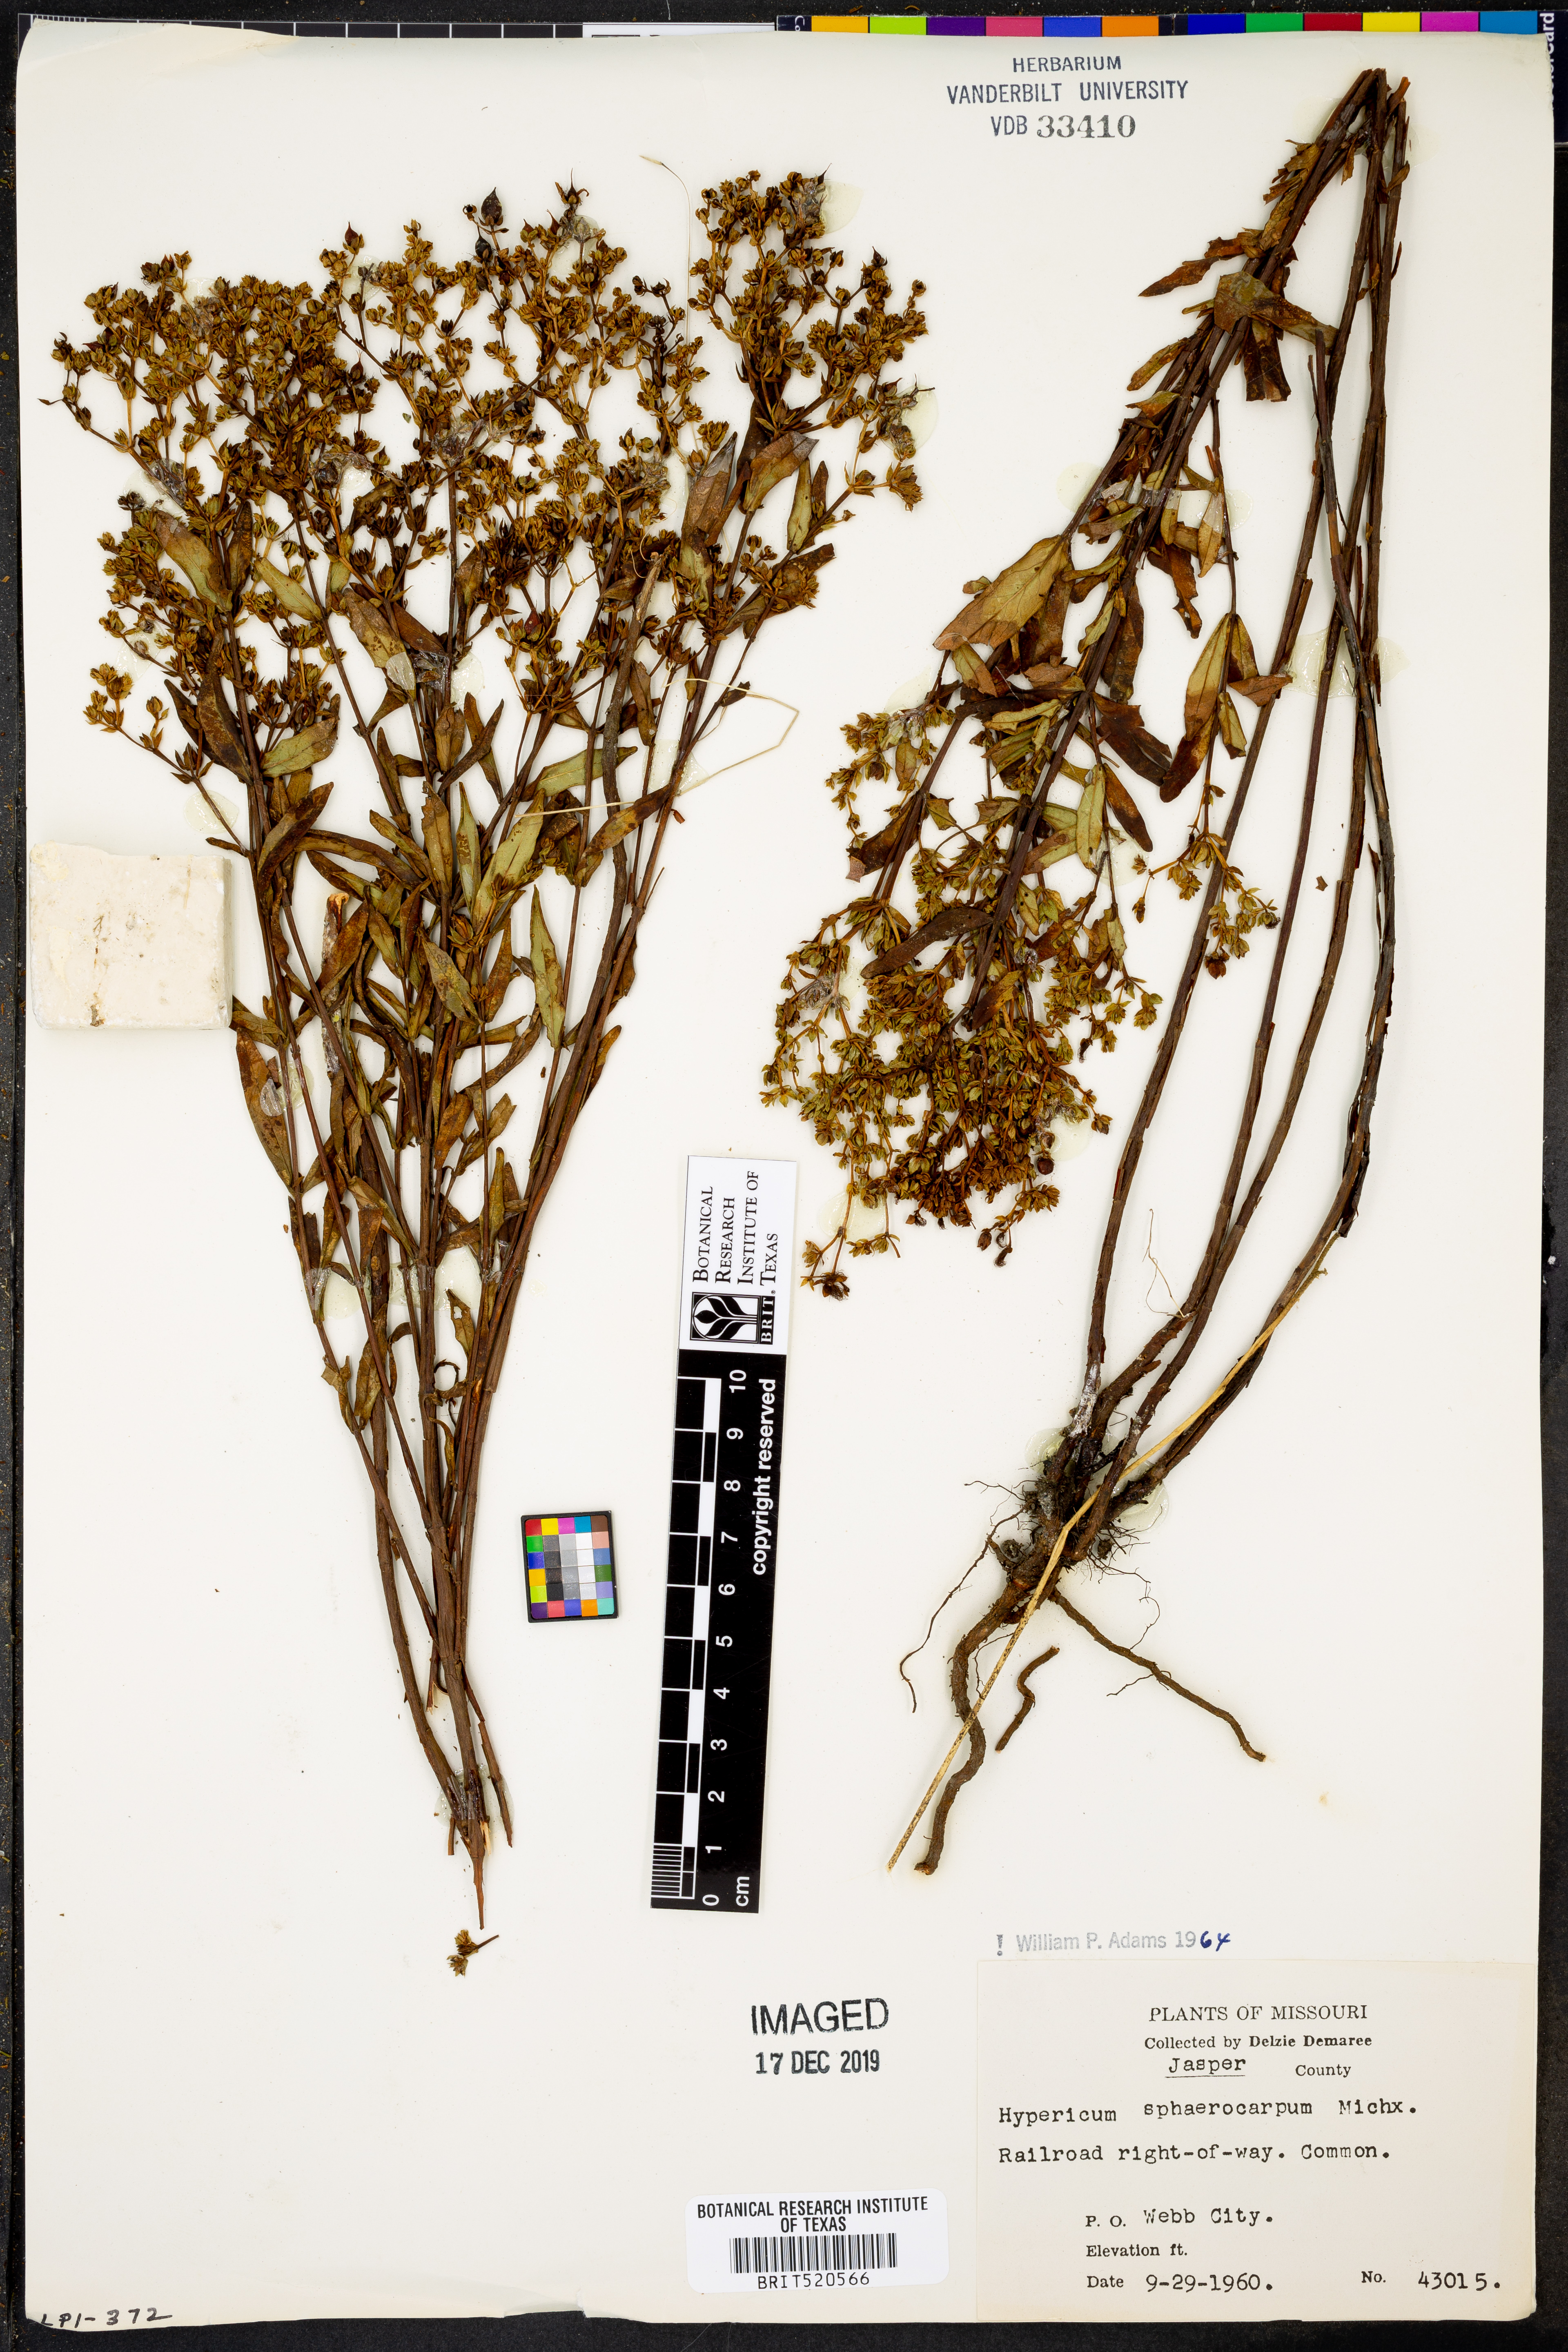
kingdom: Plantae
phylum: Tracheophyta
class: Magnoliopsida
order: Malpighiales
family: Hypericaceae
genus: Hypericum
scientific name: Hypericum sphaerocarpum
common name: Round-fruited st. john's-wort
